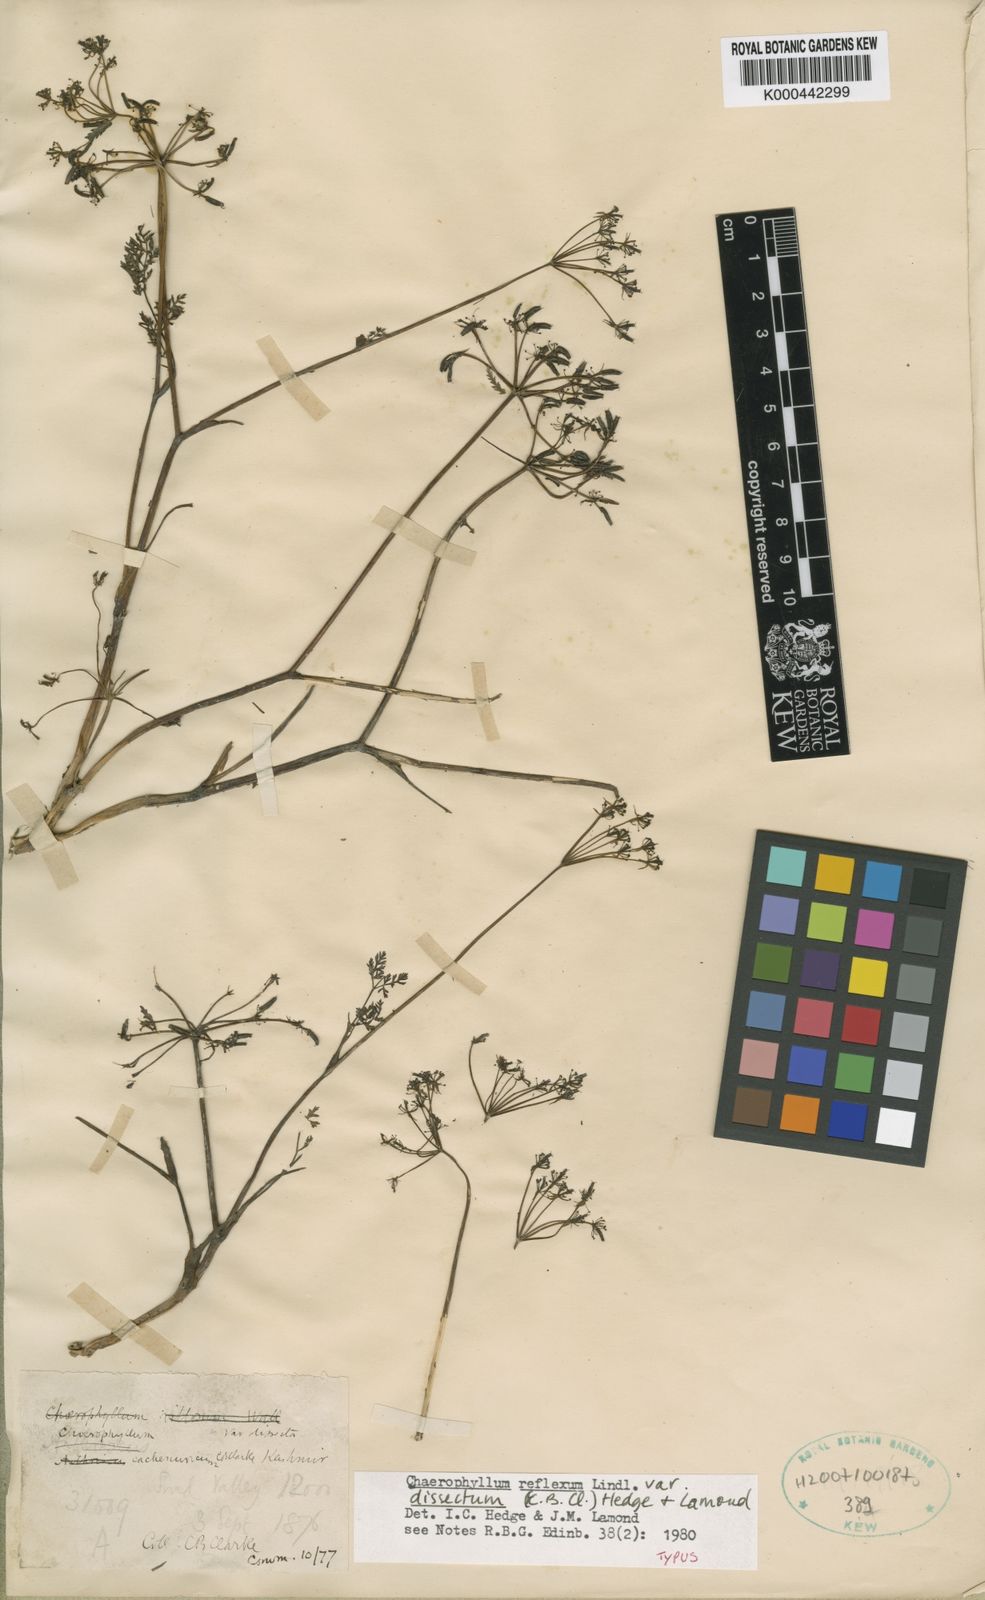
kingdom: Plantae
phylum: Tracheophyta
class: Magnoliopsida
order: Apiales
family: Apiaceae
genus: Chaerophyllum
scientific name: Chaerophyllum reflexum
